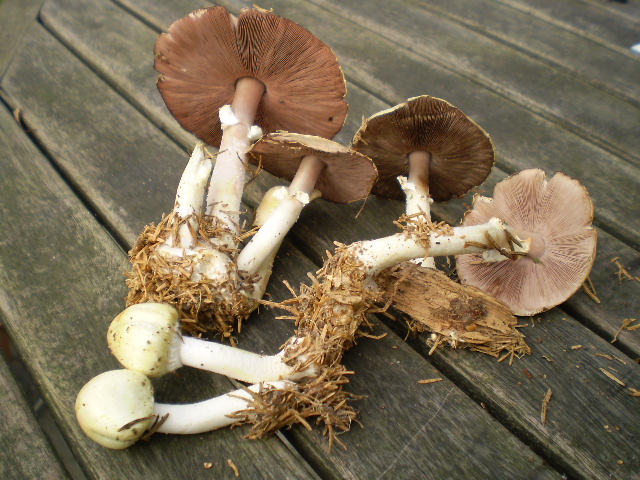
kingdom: Fungi
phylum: Basidiomycota
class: Agaricomycetes
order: Agaricales
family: Agaricaceae
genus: Agaricus
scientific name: Agaricus sylvicola
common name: skiveknoldet champignon
